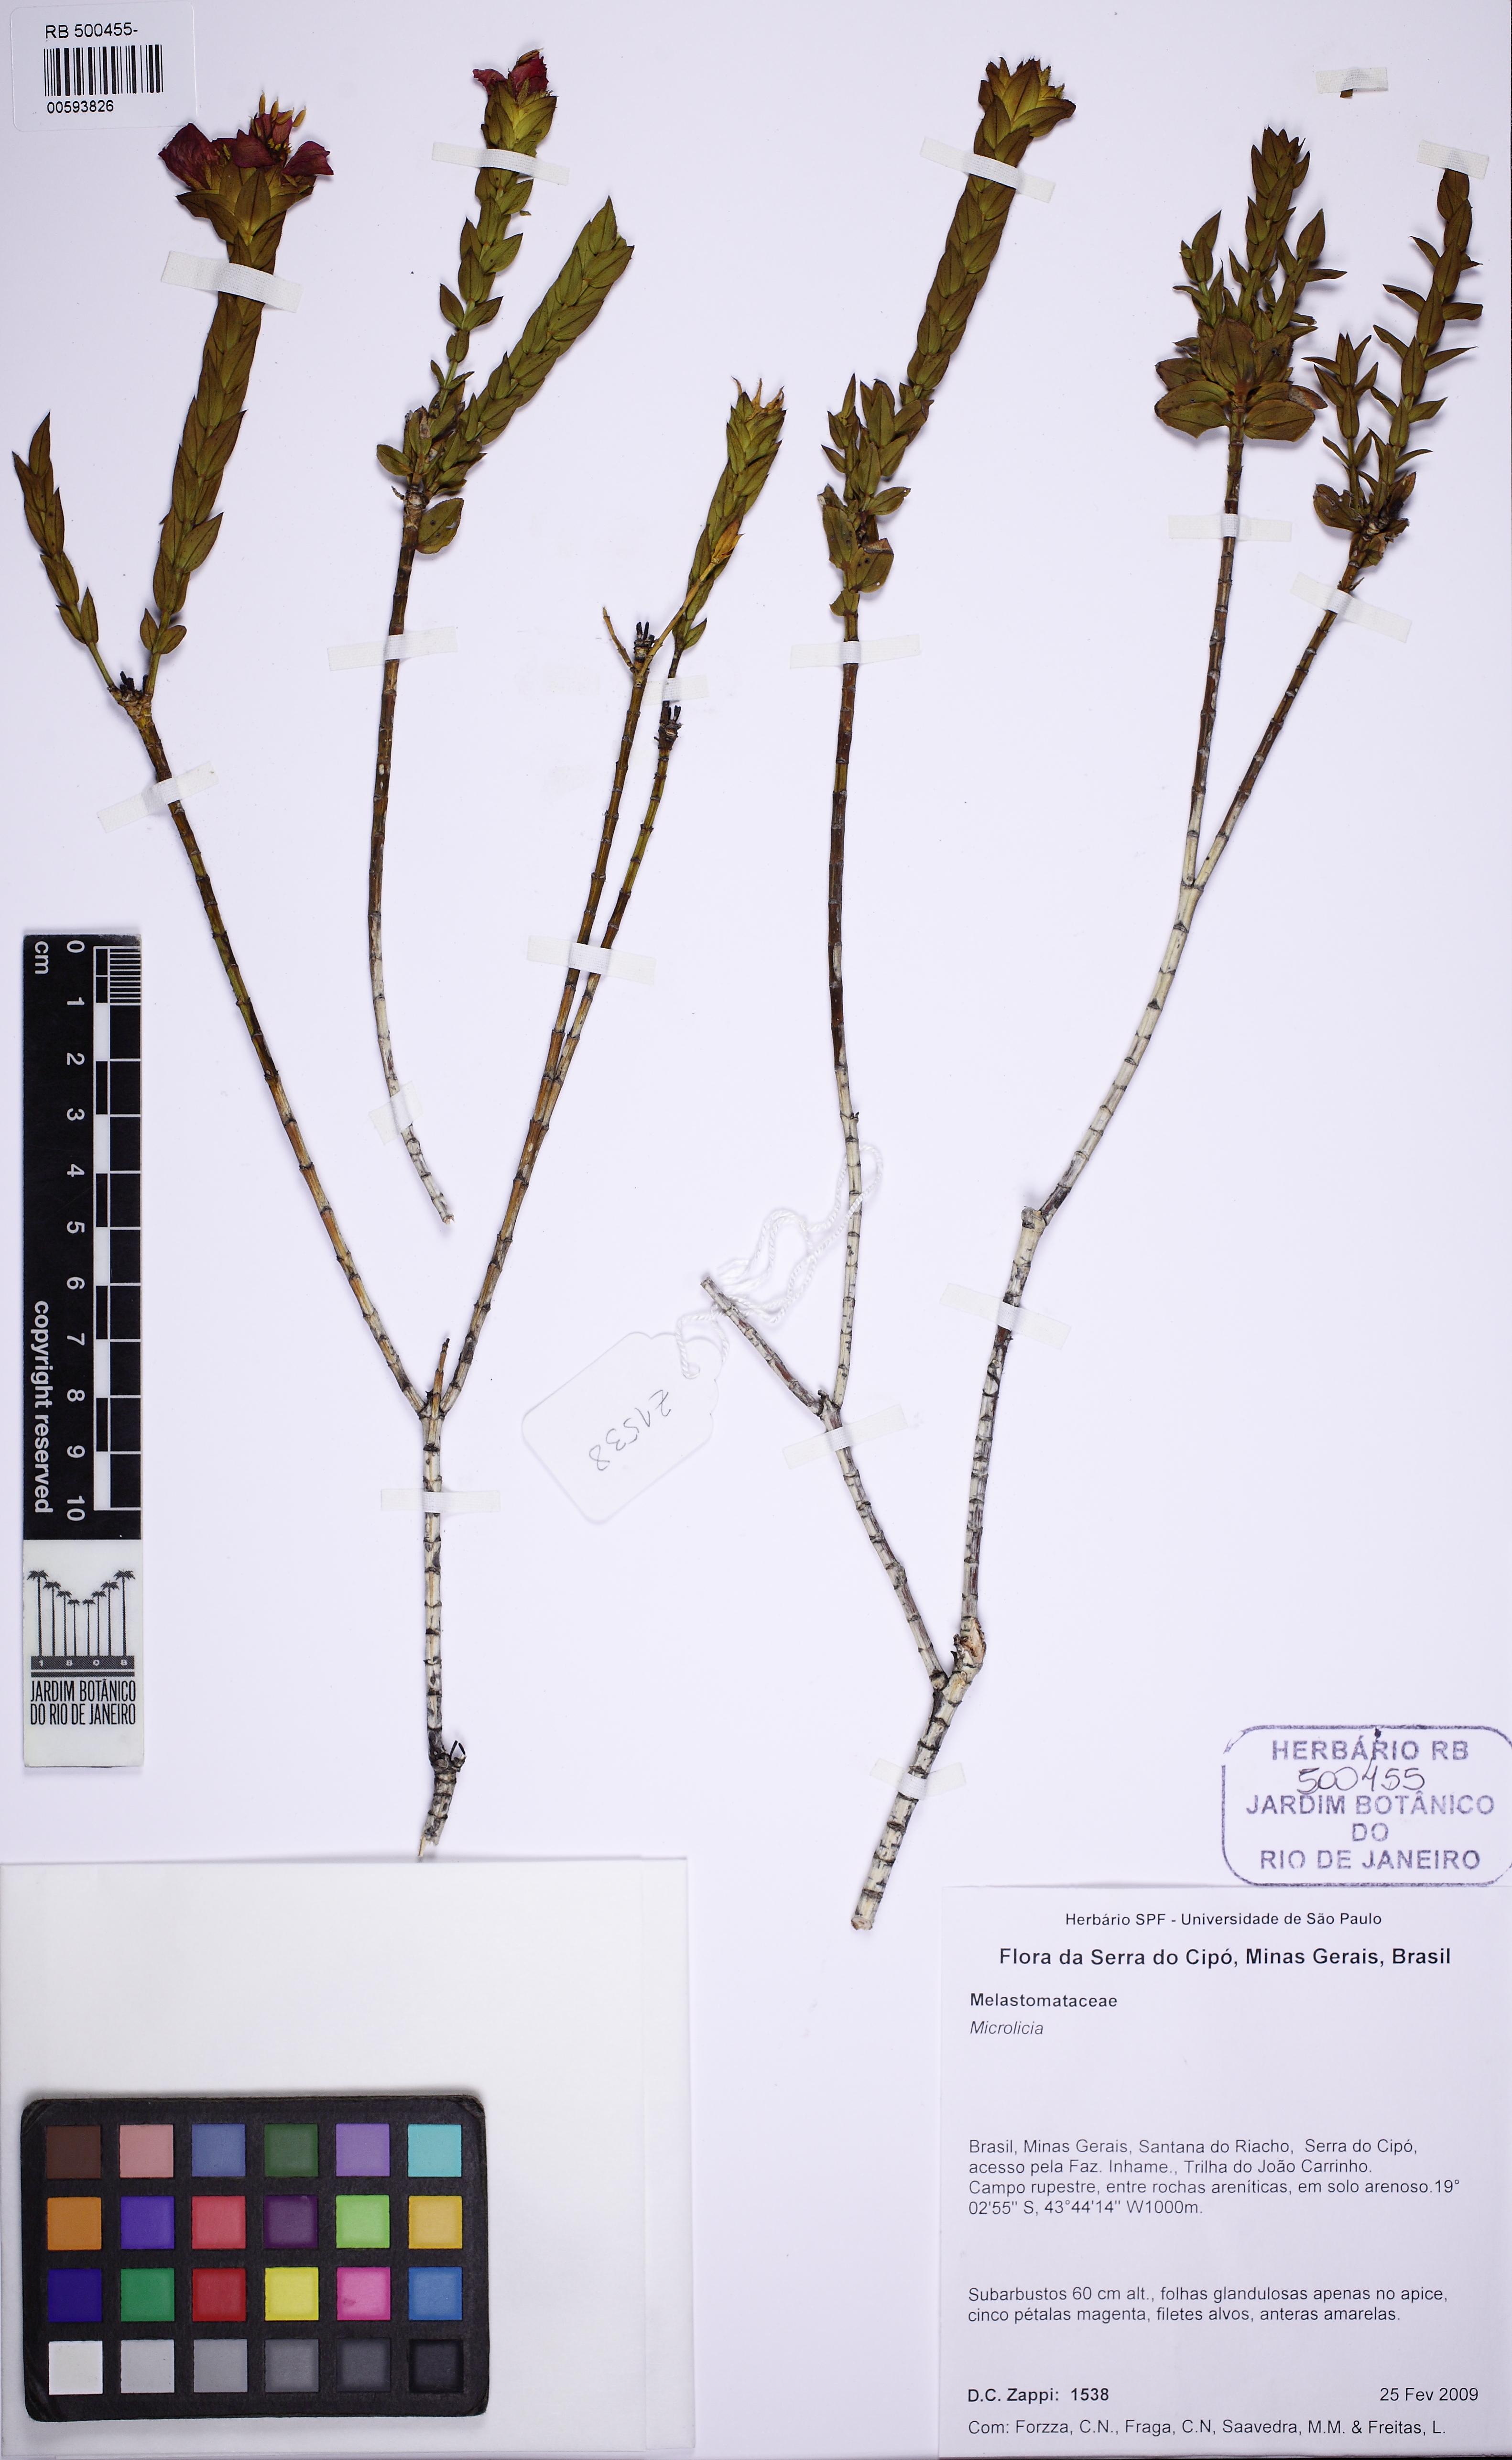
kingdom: Plantae
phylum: Tracheophyta
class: Magnoliopsida
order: Myrtales
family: Melastomataceae
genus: Microlicia
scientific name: Microlicia congestiflora
